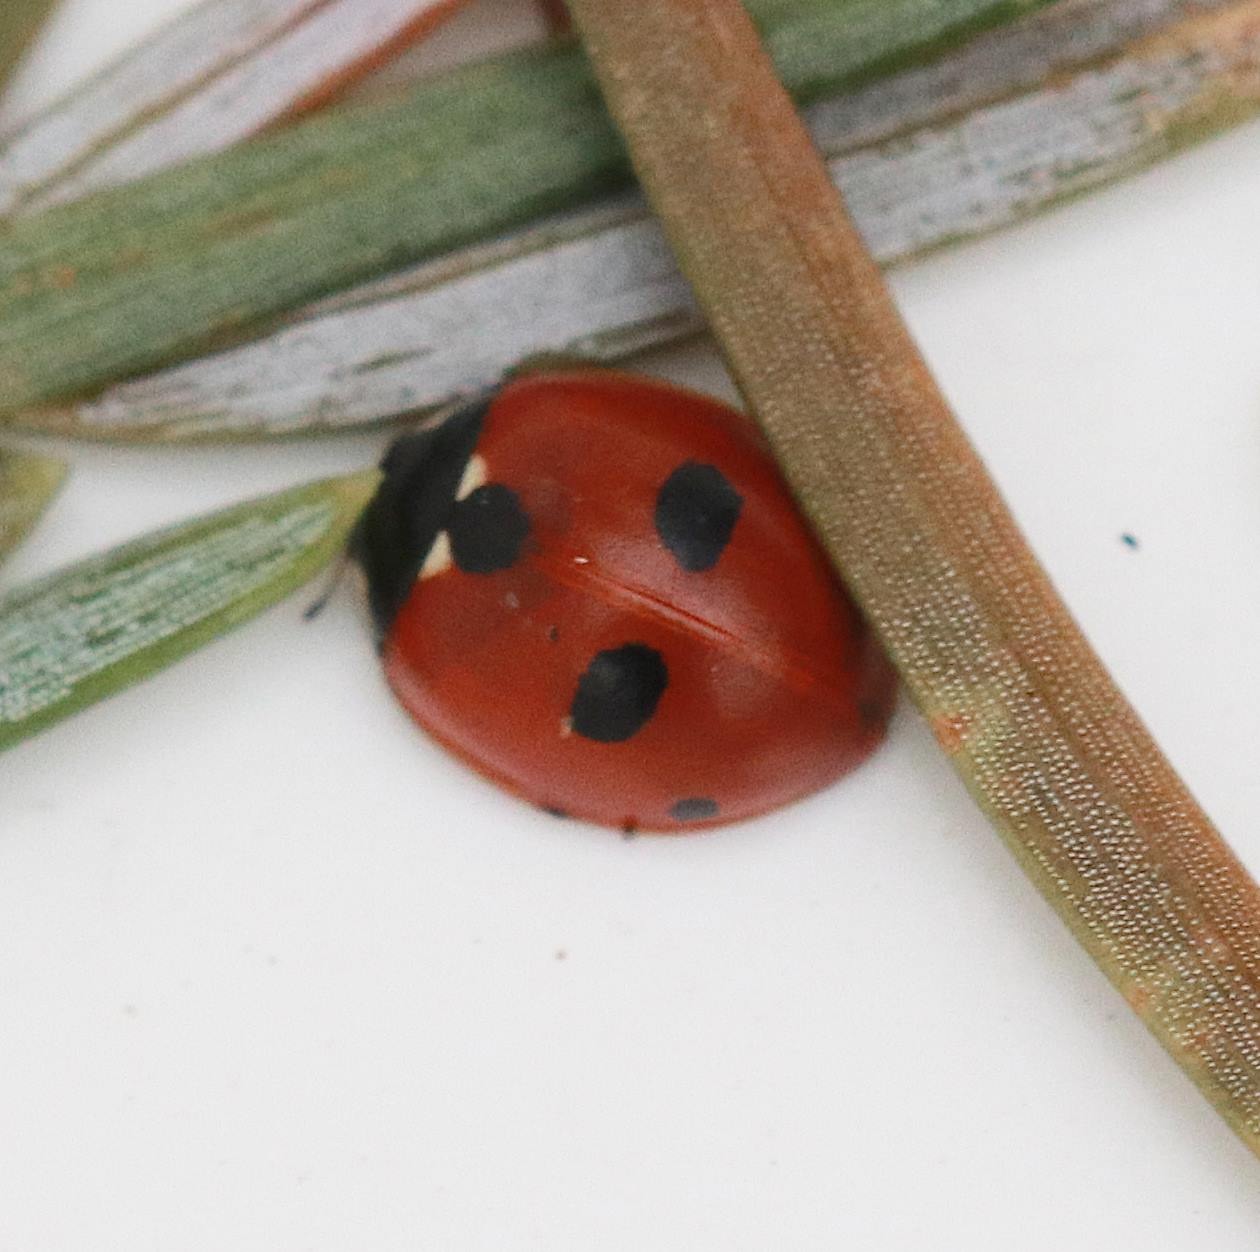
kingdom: Animalia
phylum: Arthropoda
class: Insecta
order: Coleoptera
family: Coccinellidae
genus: Coccinella
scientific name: Coccinella quinquepunctata
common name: Femplettet mariehøne
